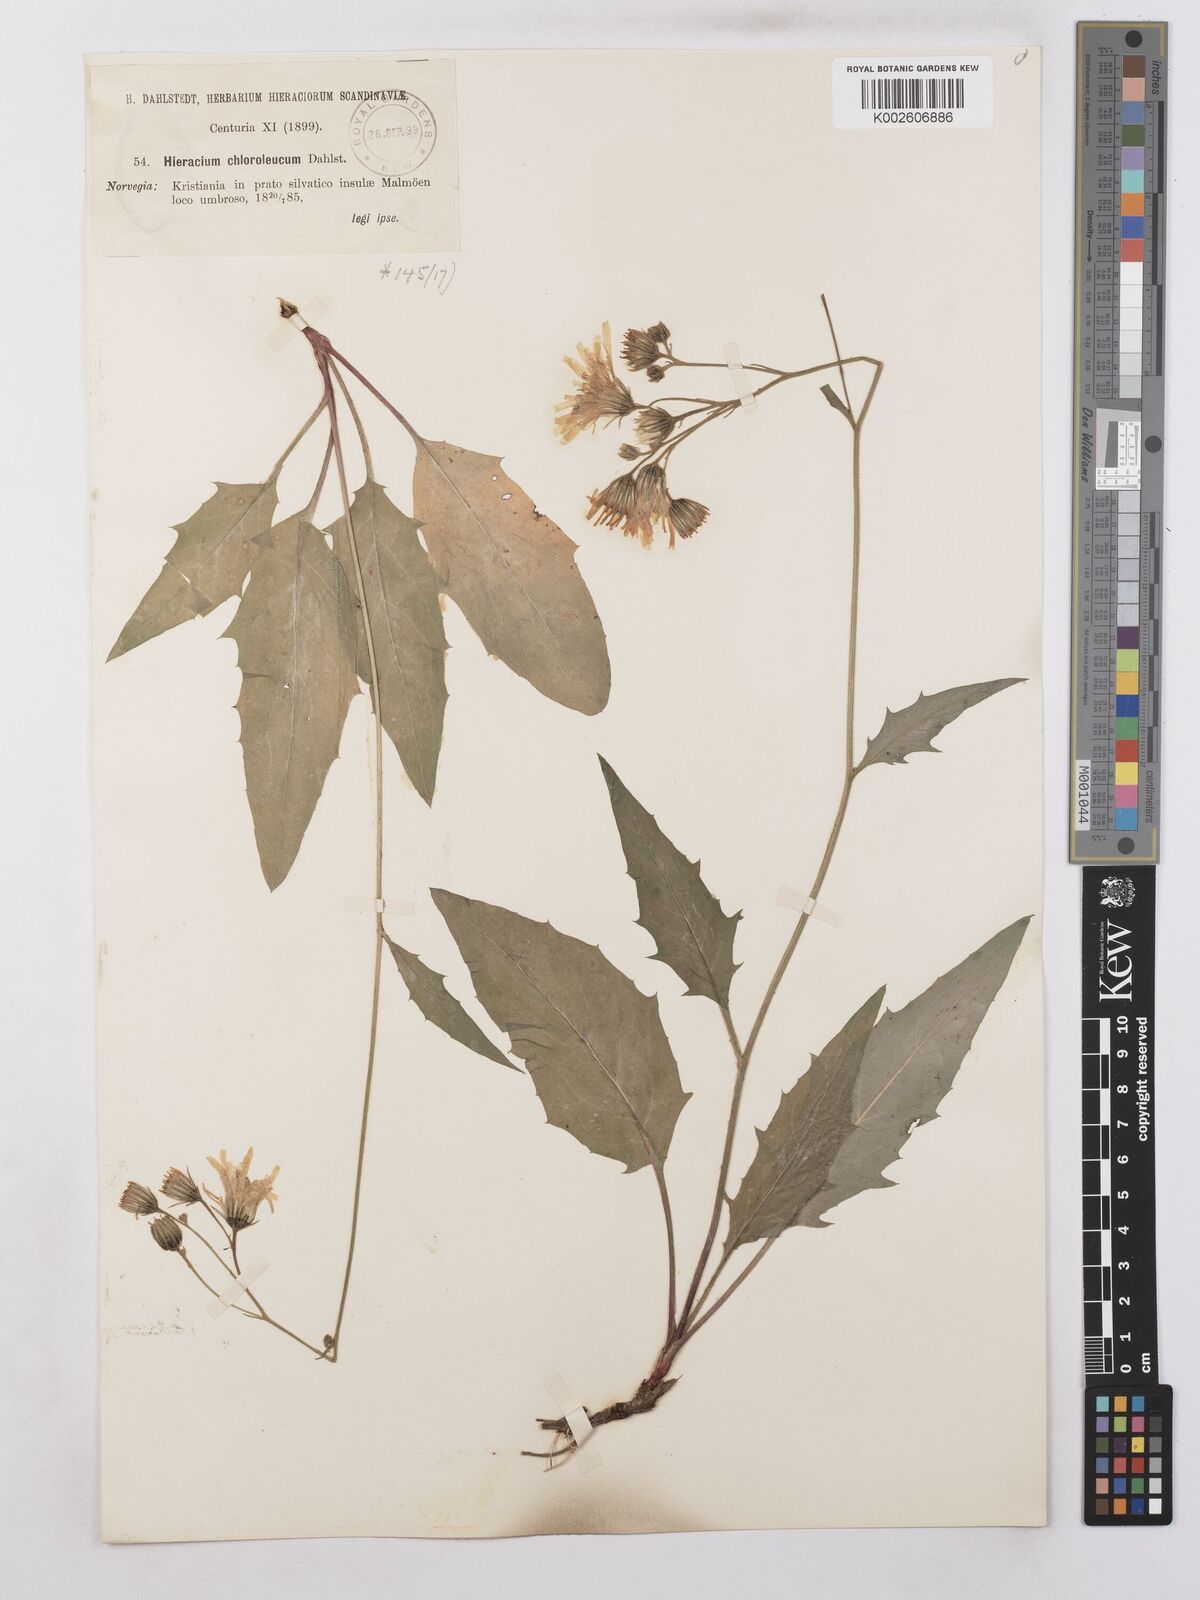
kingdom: Plantae
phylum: Tracheophyta
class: Magnoliopsida
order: Asterales
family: Asteraceae
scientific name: Asteraceae
